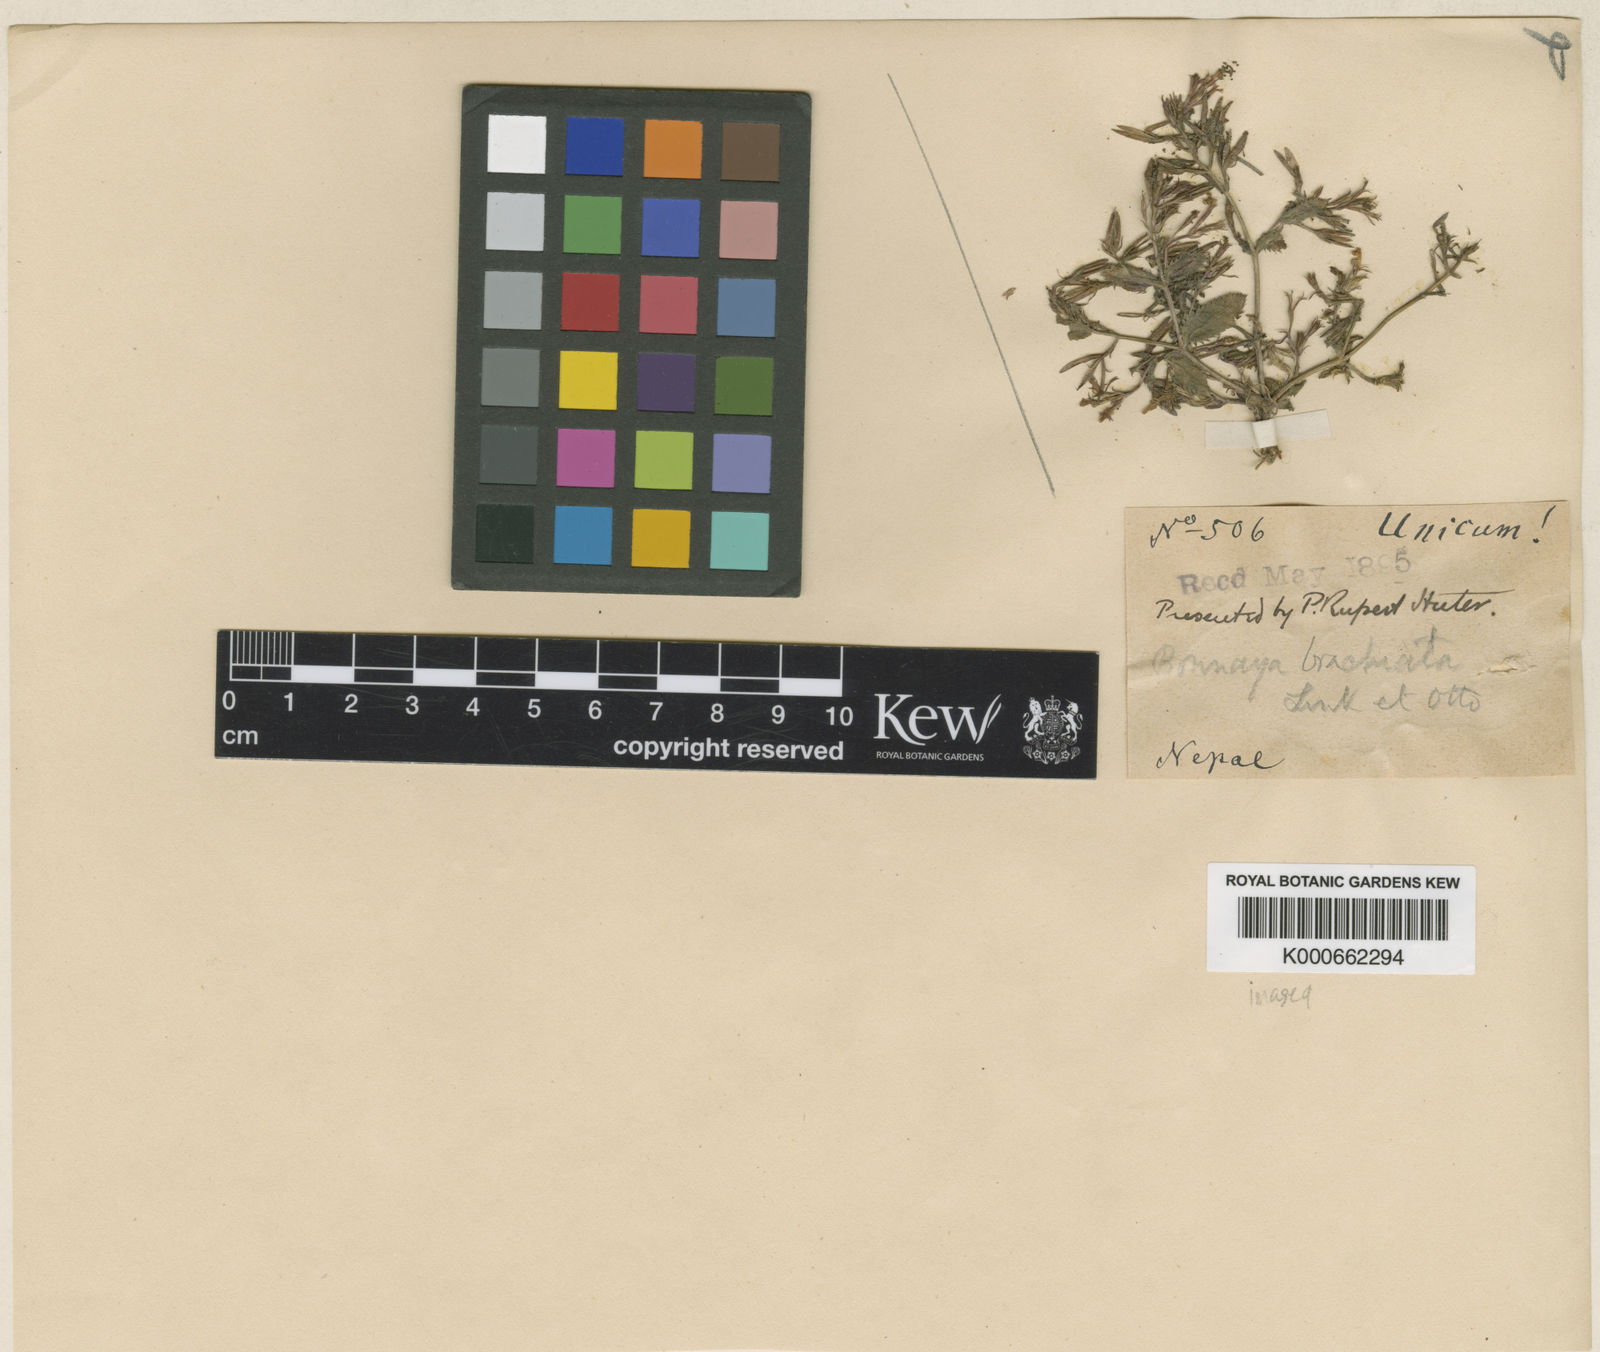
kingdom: Plantae
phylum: Tracheophyta
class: Magnoliopsida
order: Lamiales
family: Linderniaceae
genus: Bonnaya
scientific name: Bonnaya ciliata
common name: Hairy slitwort
